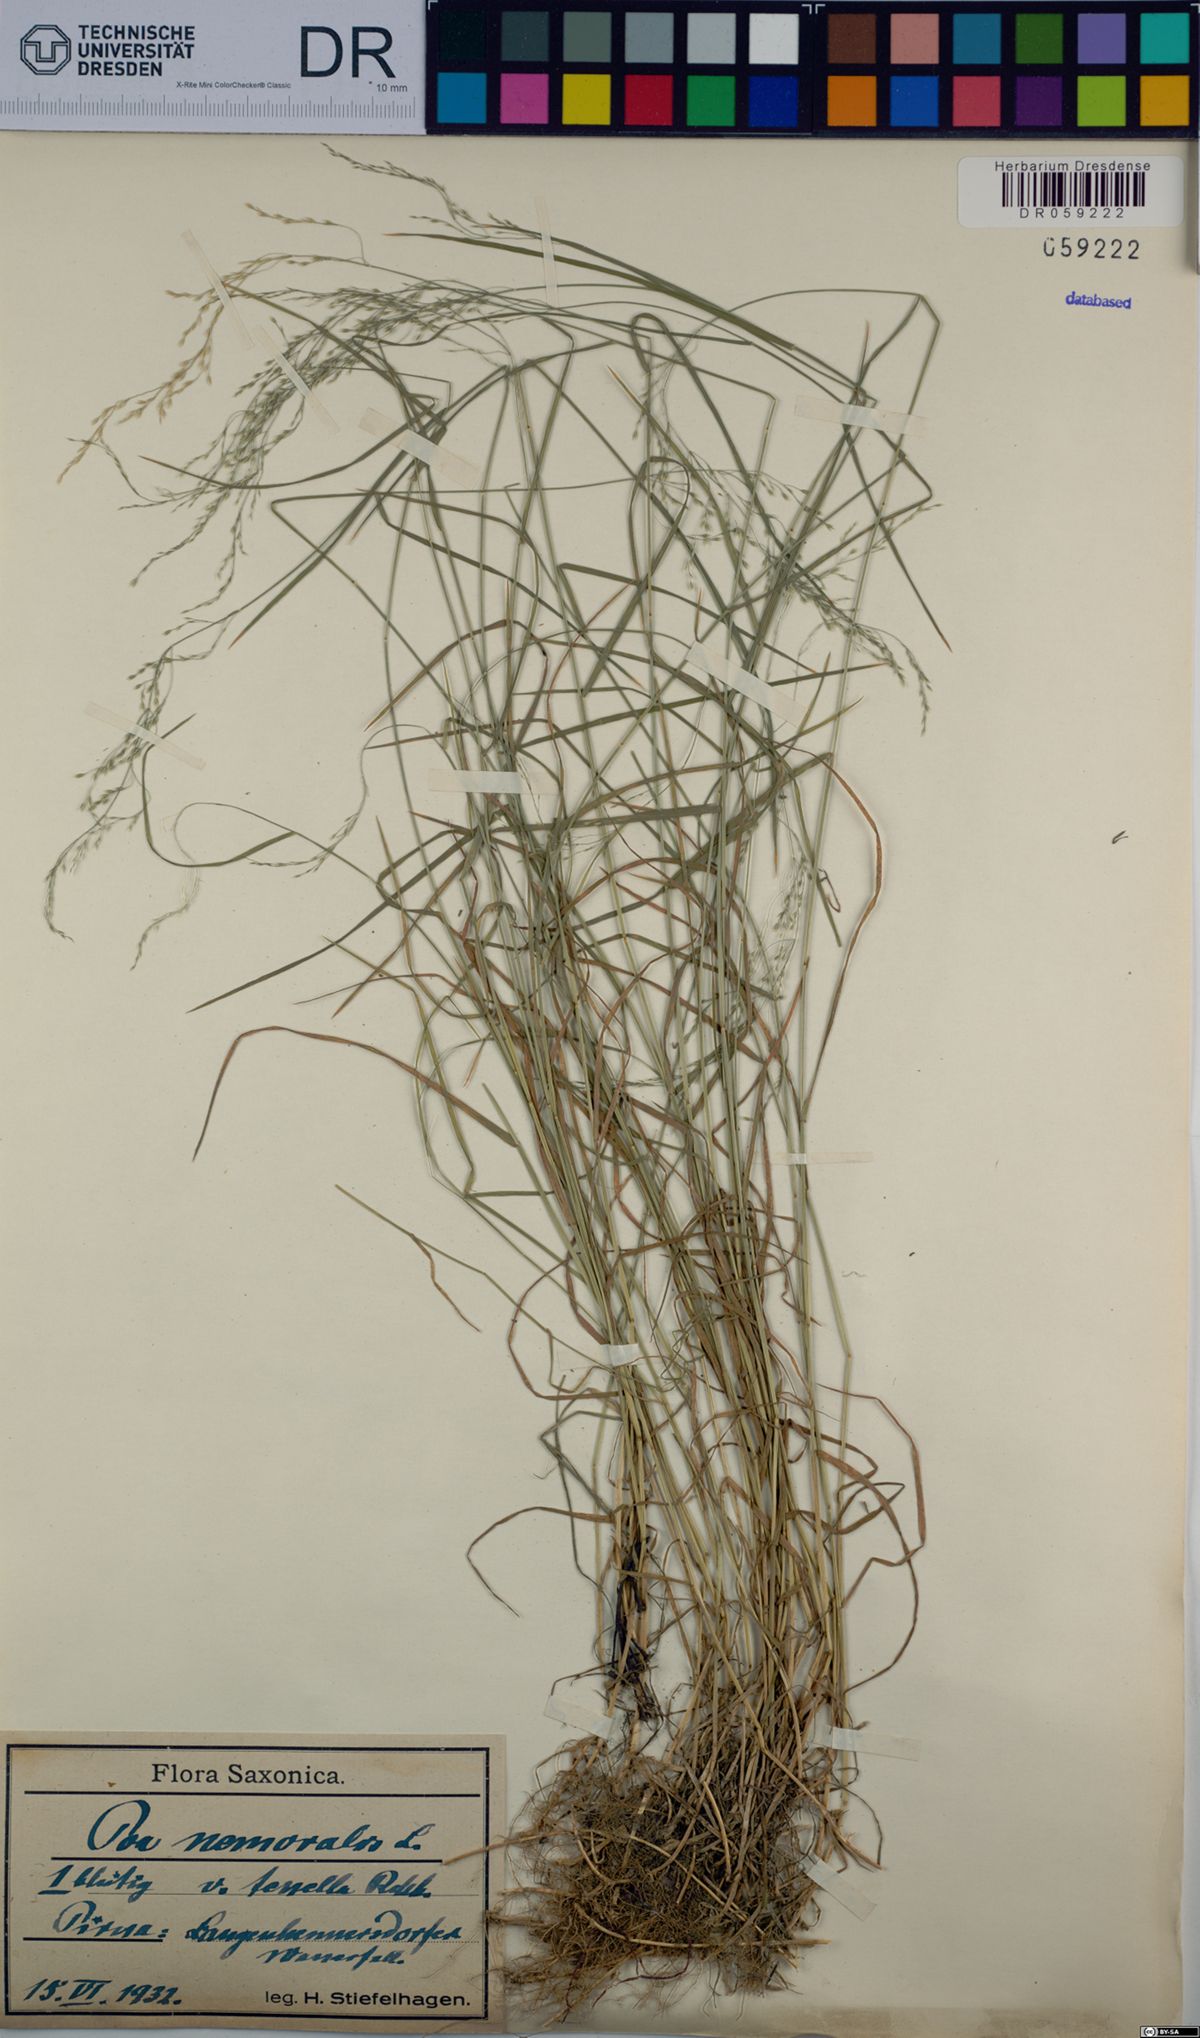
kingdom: Plantae
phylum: Tracheophyta
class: Liliopsida
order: Poales
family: Poaceae
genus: Poa
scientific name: Poa nemoralis
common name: Wood bluegrass
